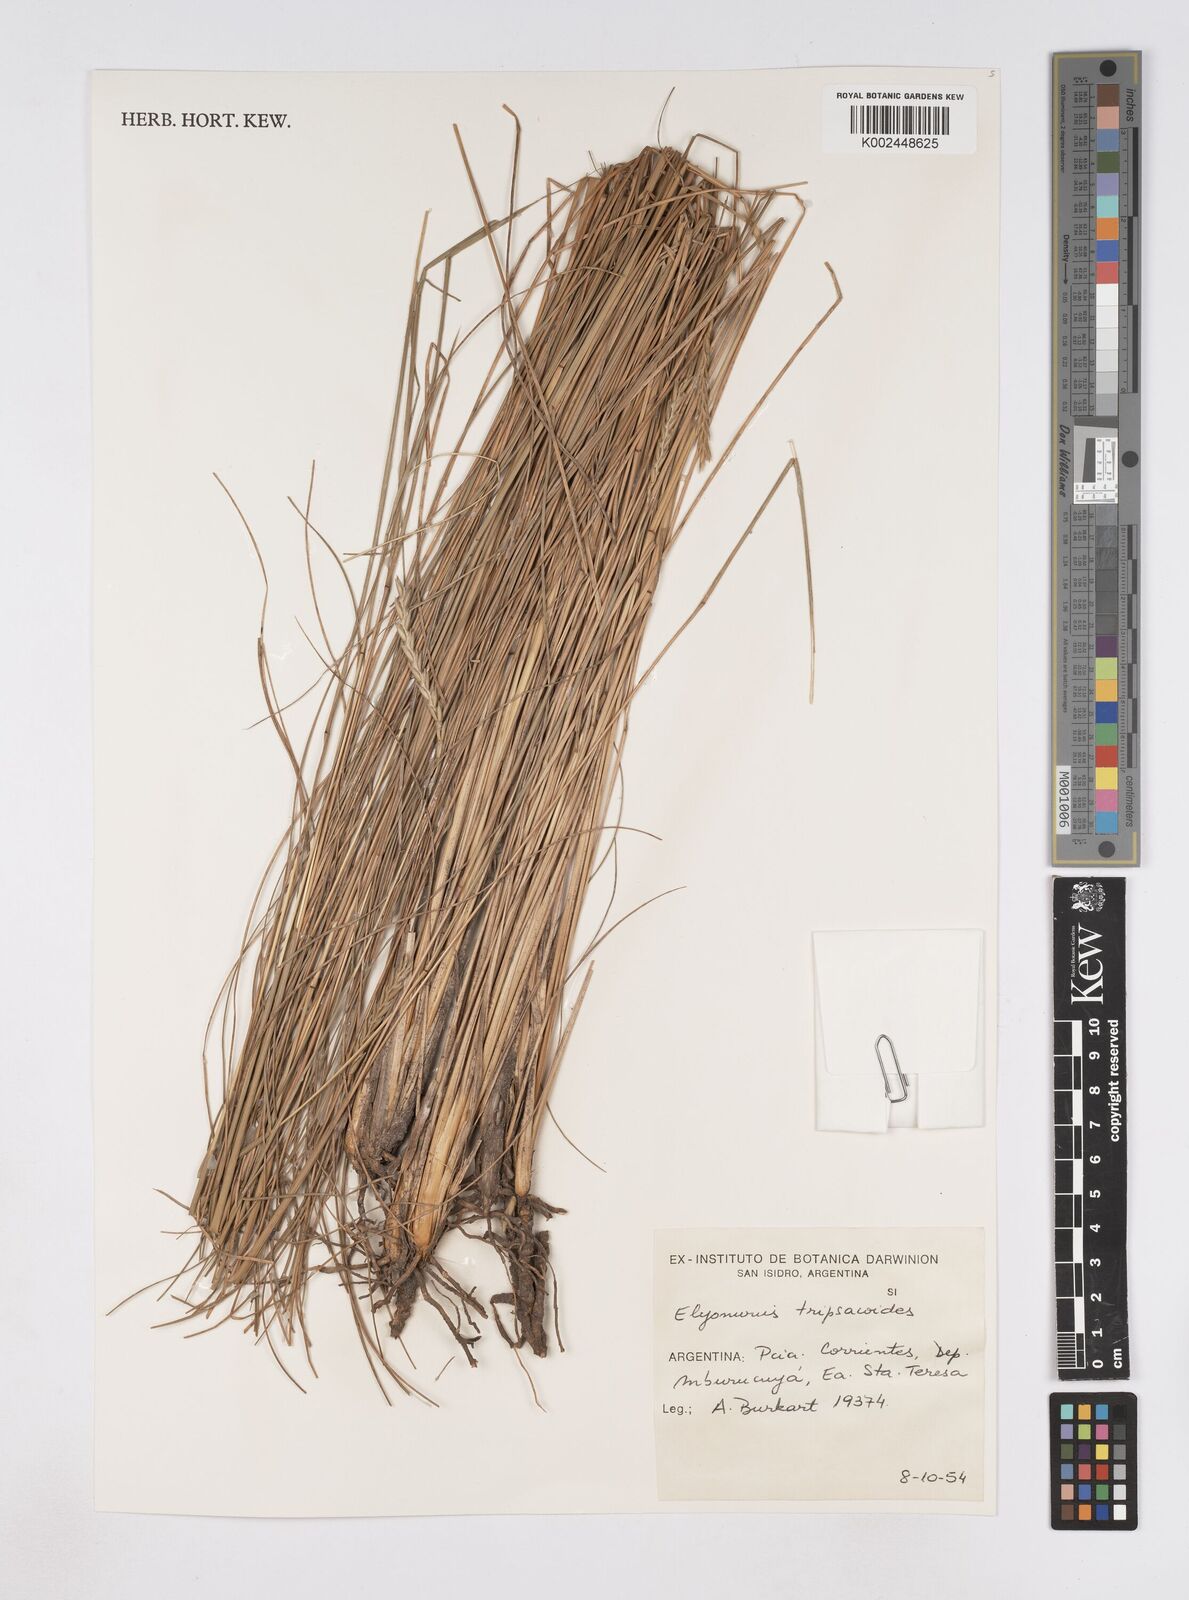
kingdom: Plantae
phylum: Tracheophyta
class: Liliopsida
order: Poales
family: Poaceae
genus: Elionurus
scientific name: Elionurus tripsacoides
